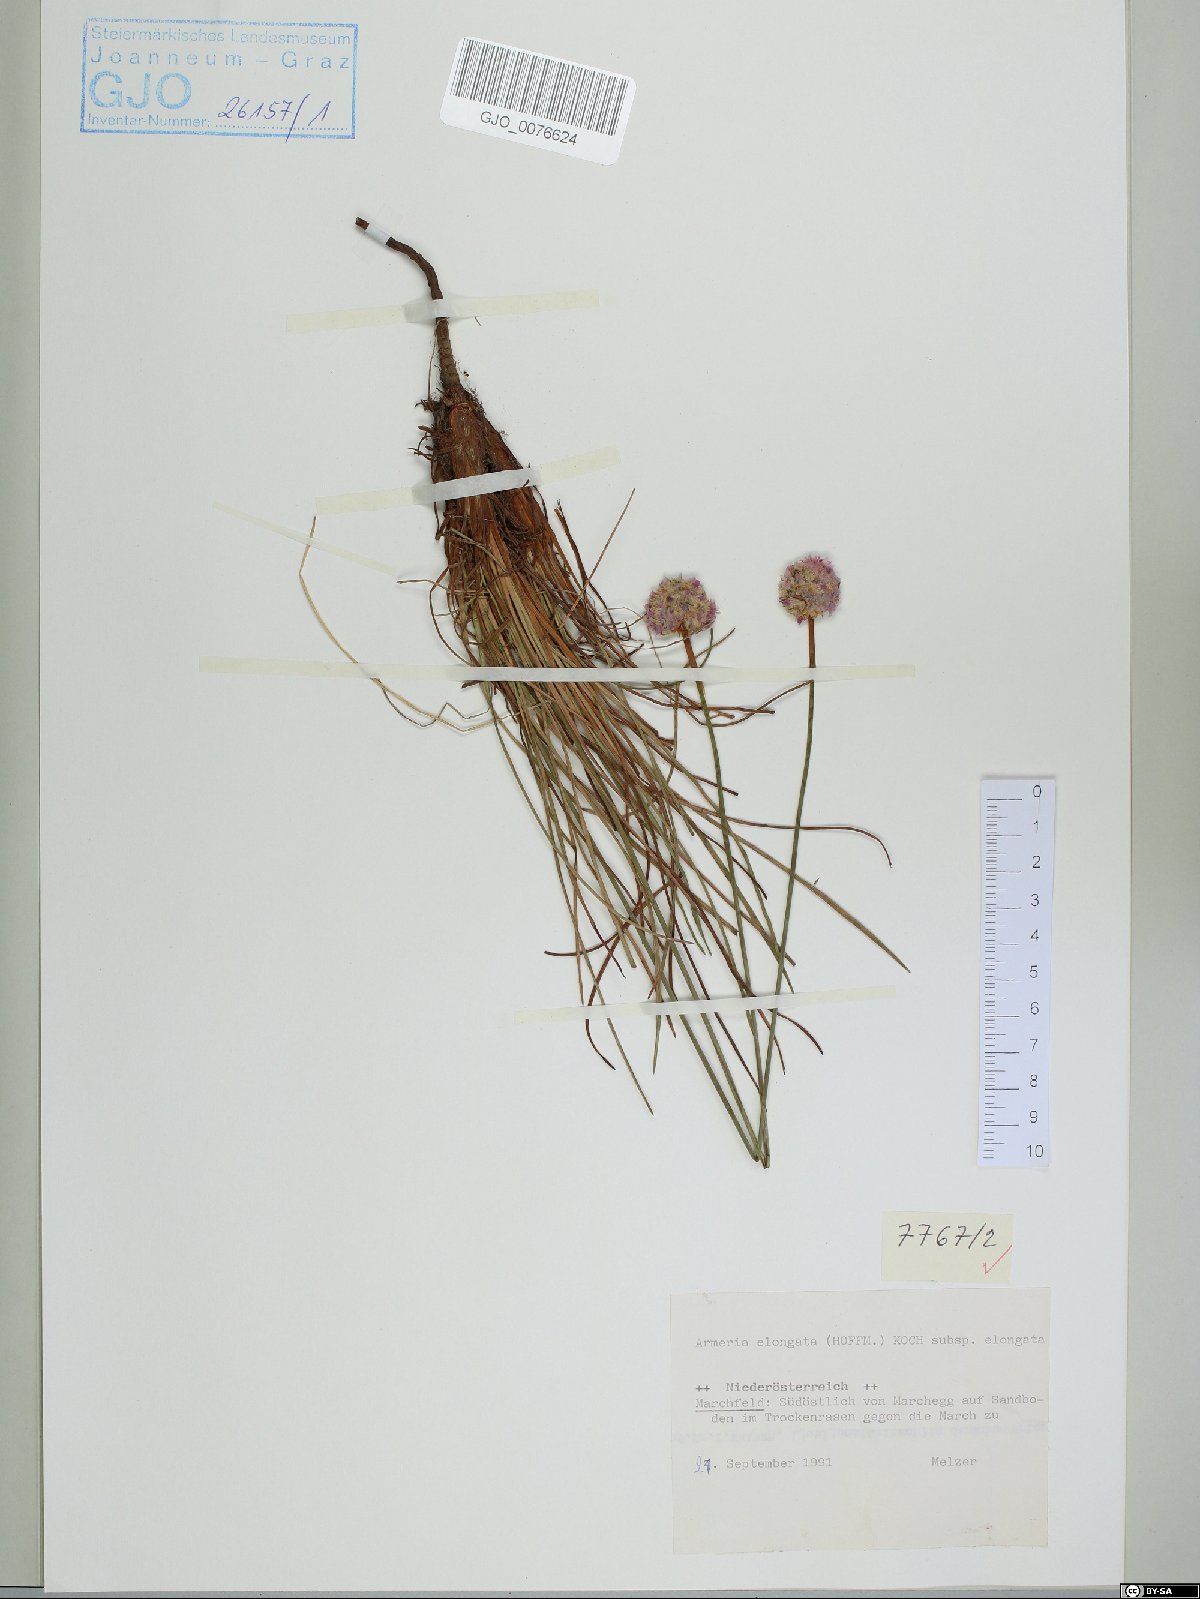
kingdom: Plantae
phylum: Tracheophyta
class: Magnoliopsida
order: Caryophyllales
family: Plumbaginaceae
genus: Armeria
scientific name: Armeria maritima
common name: Thrift
